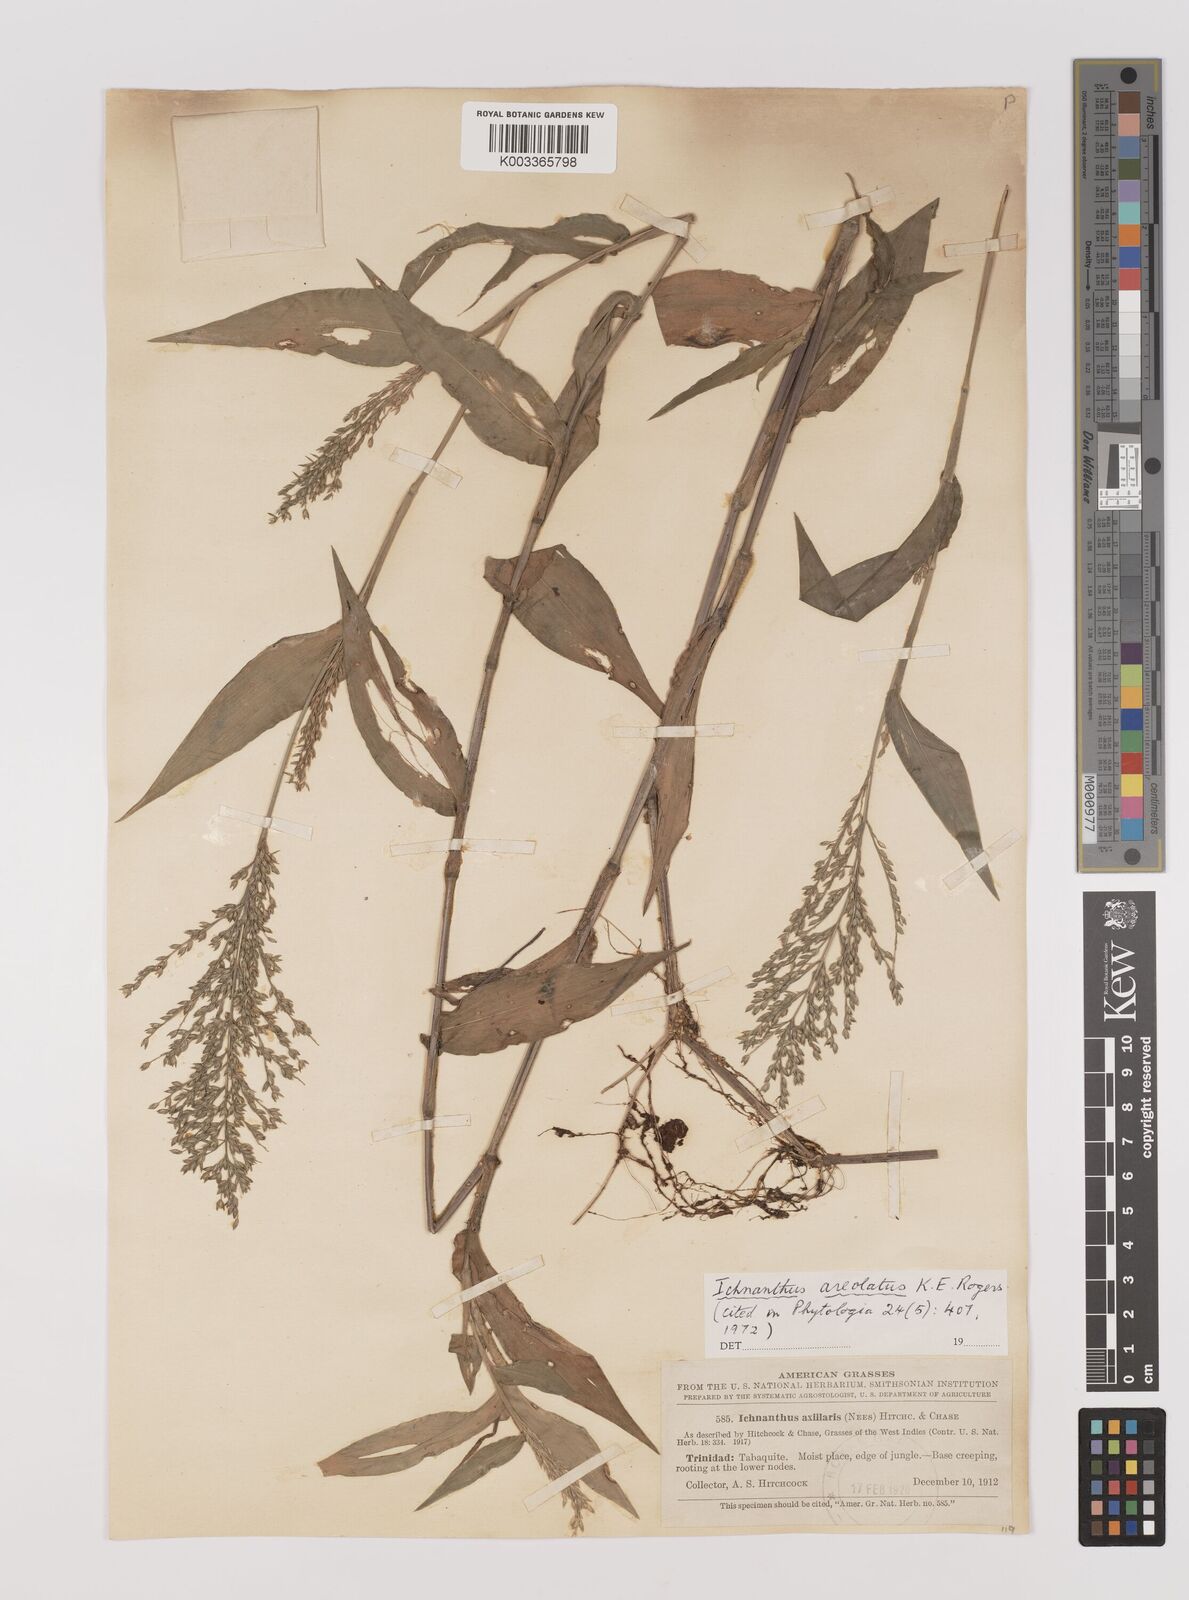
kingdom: Plantae
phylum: Tracheophyta
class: Liliopsida
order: Poales
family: Poaceae
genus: Ichnanthus
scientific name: Ichnanthus pallens
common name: Water grass
